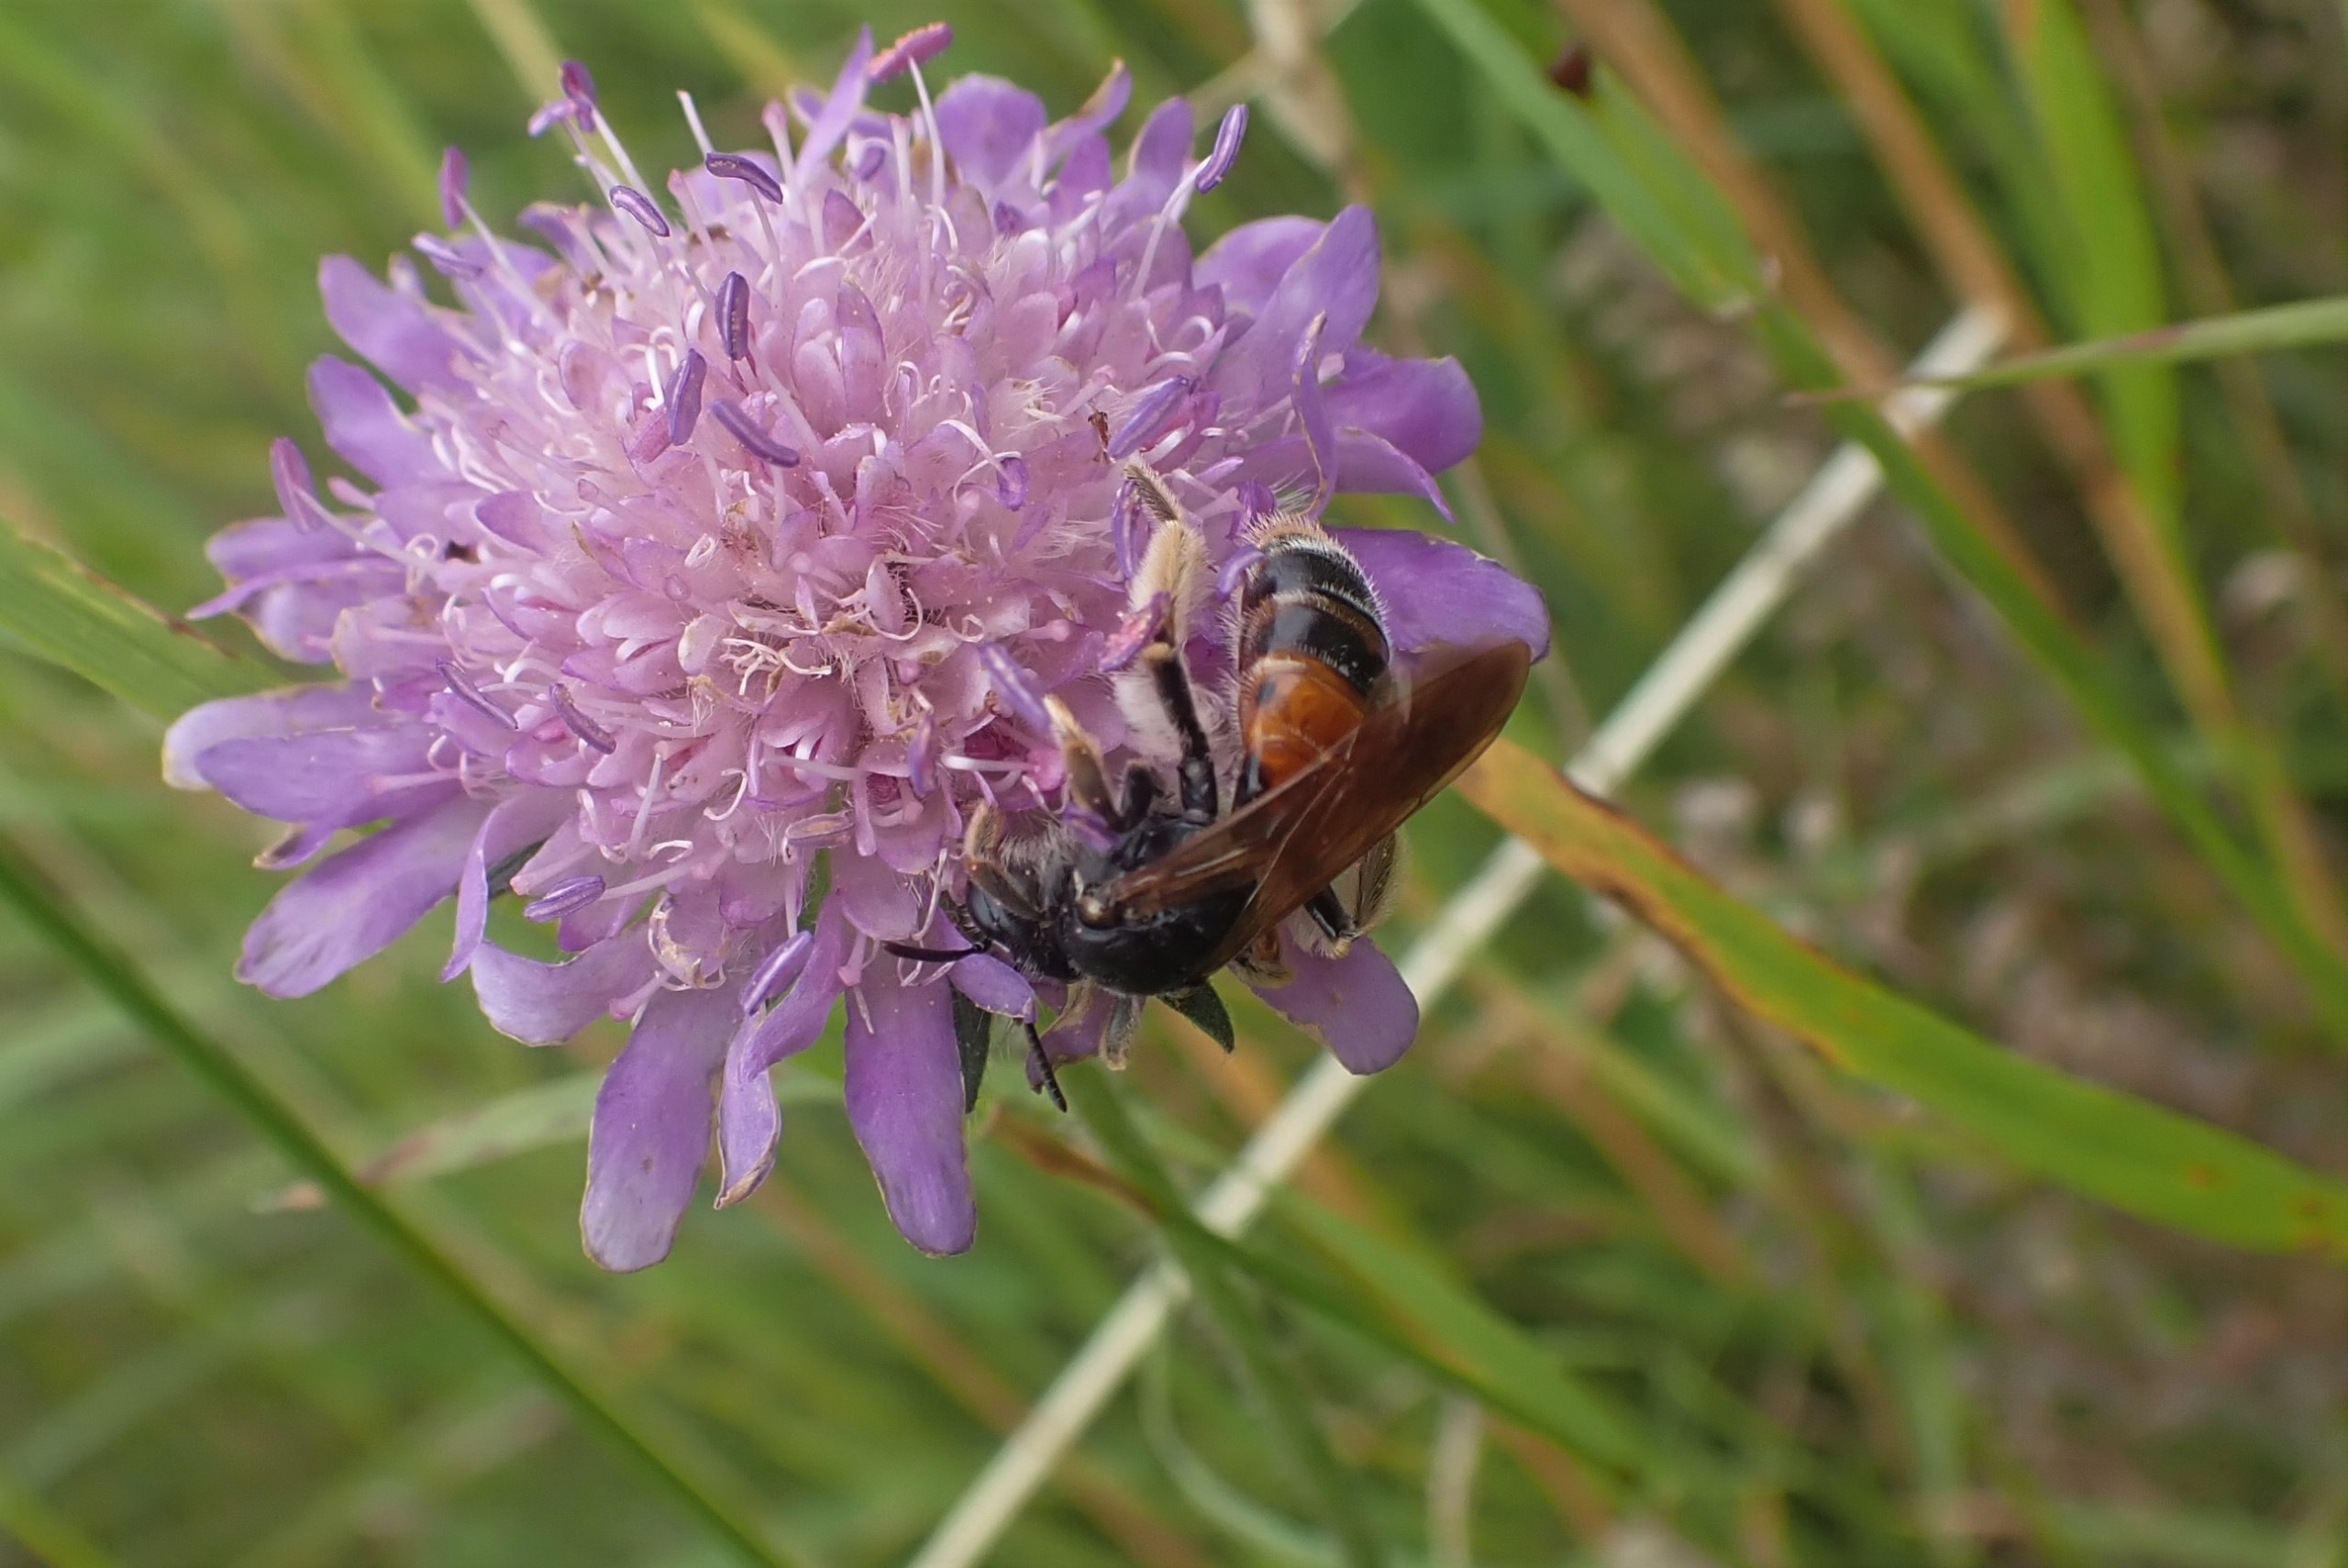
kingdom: Animalia
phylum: Arthropoda
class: Insecta
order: Hymenoptera
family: Andrenidae
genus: Andrena
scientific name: Andrena hattorfiana
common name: Blåhatjordbi
